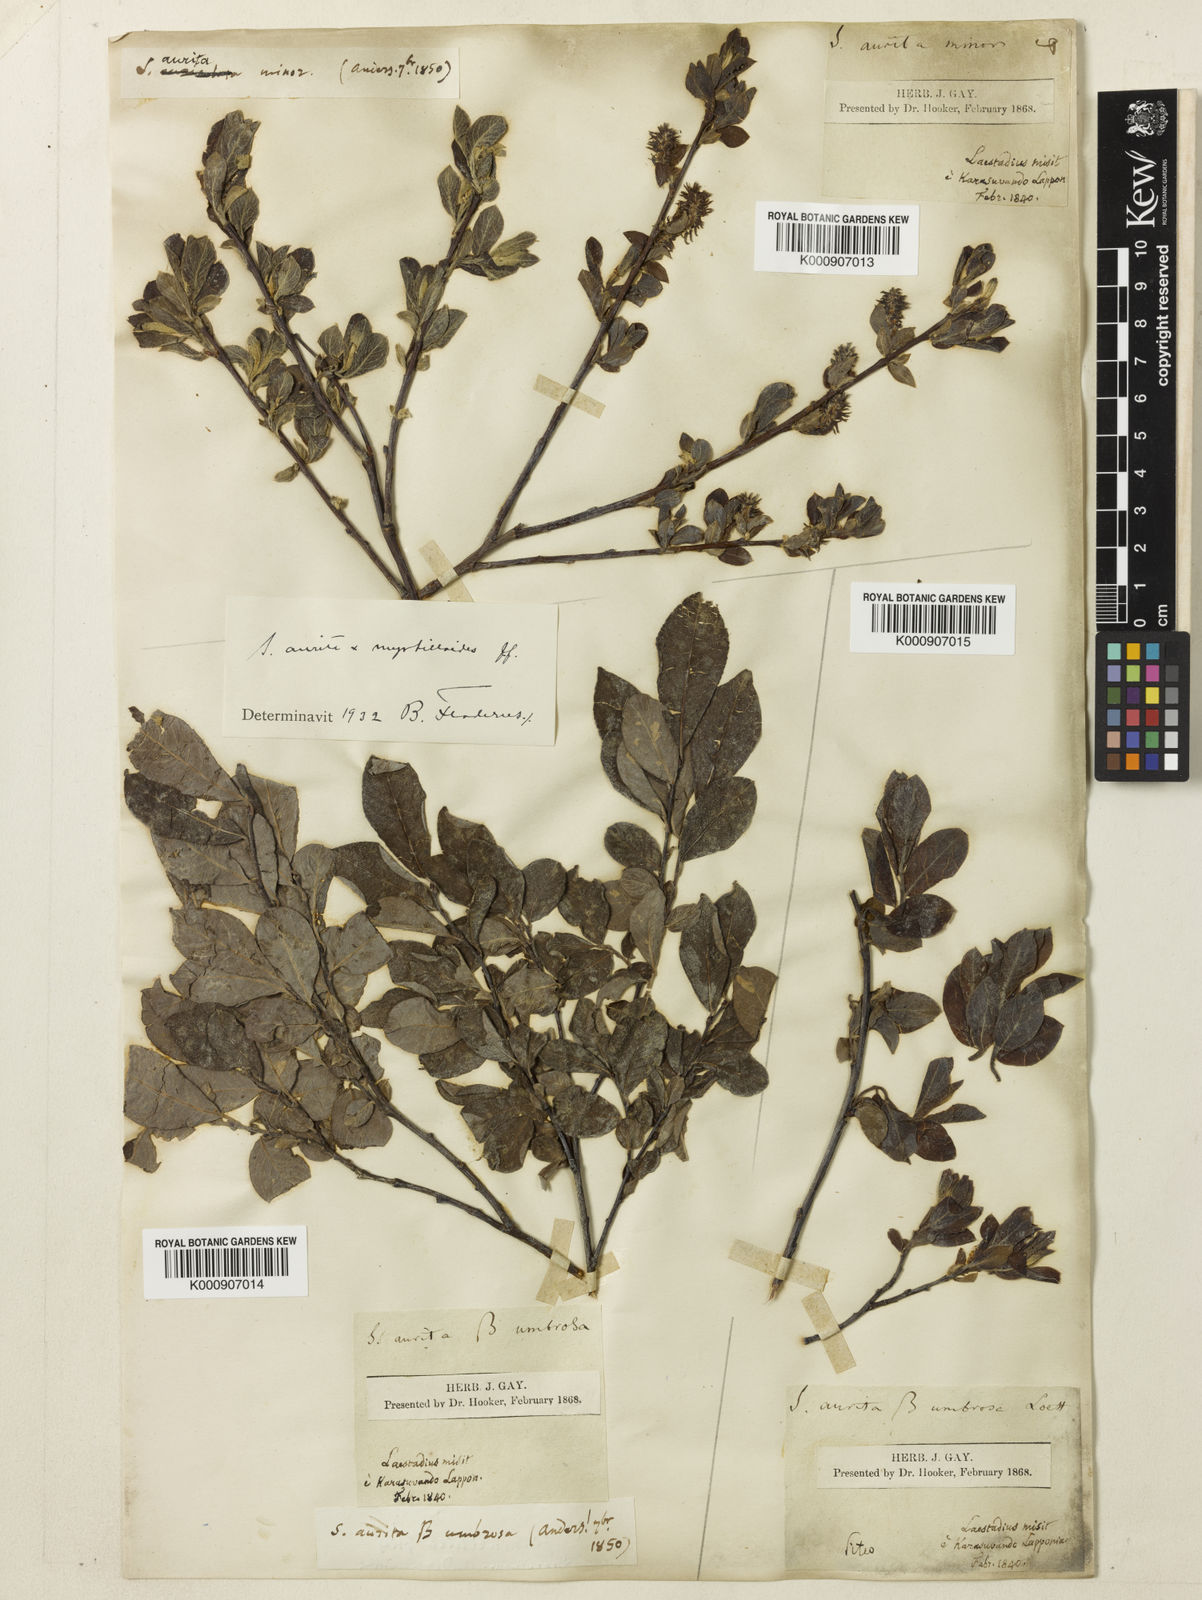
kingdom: Plantae
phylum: Tracheophyta
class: Magnoliopsida
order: Malpighiales
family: Salicaceae
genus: Salix
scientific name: Salix aurita
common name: Eared willow
